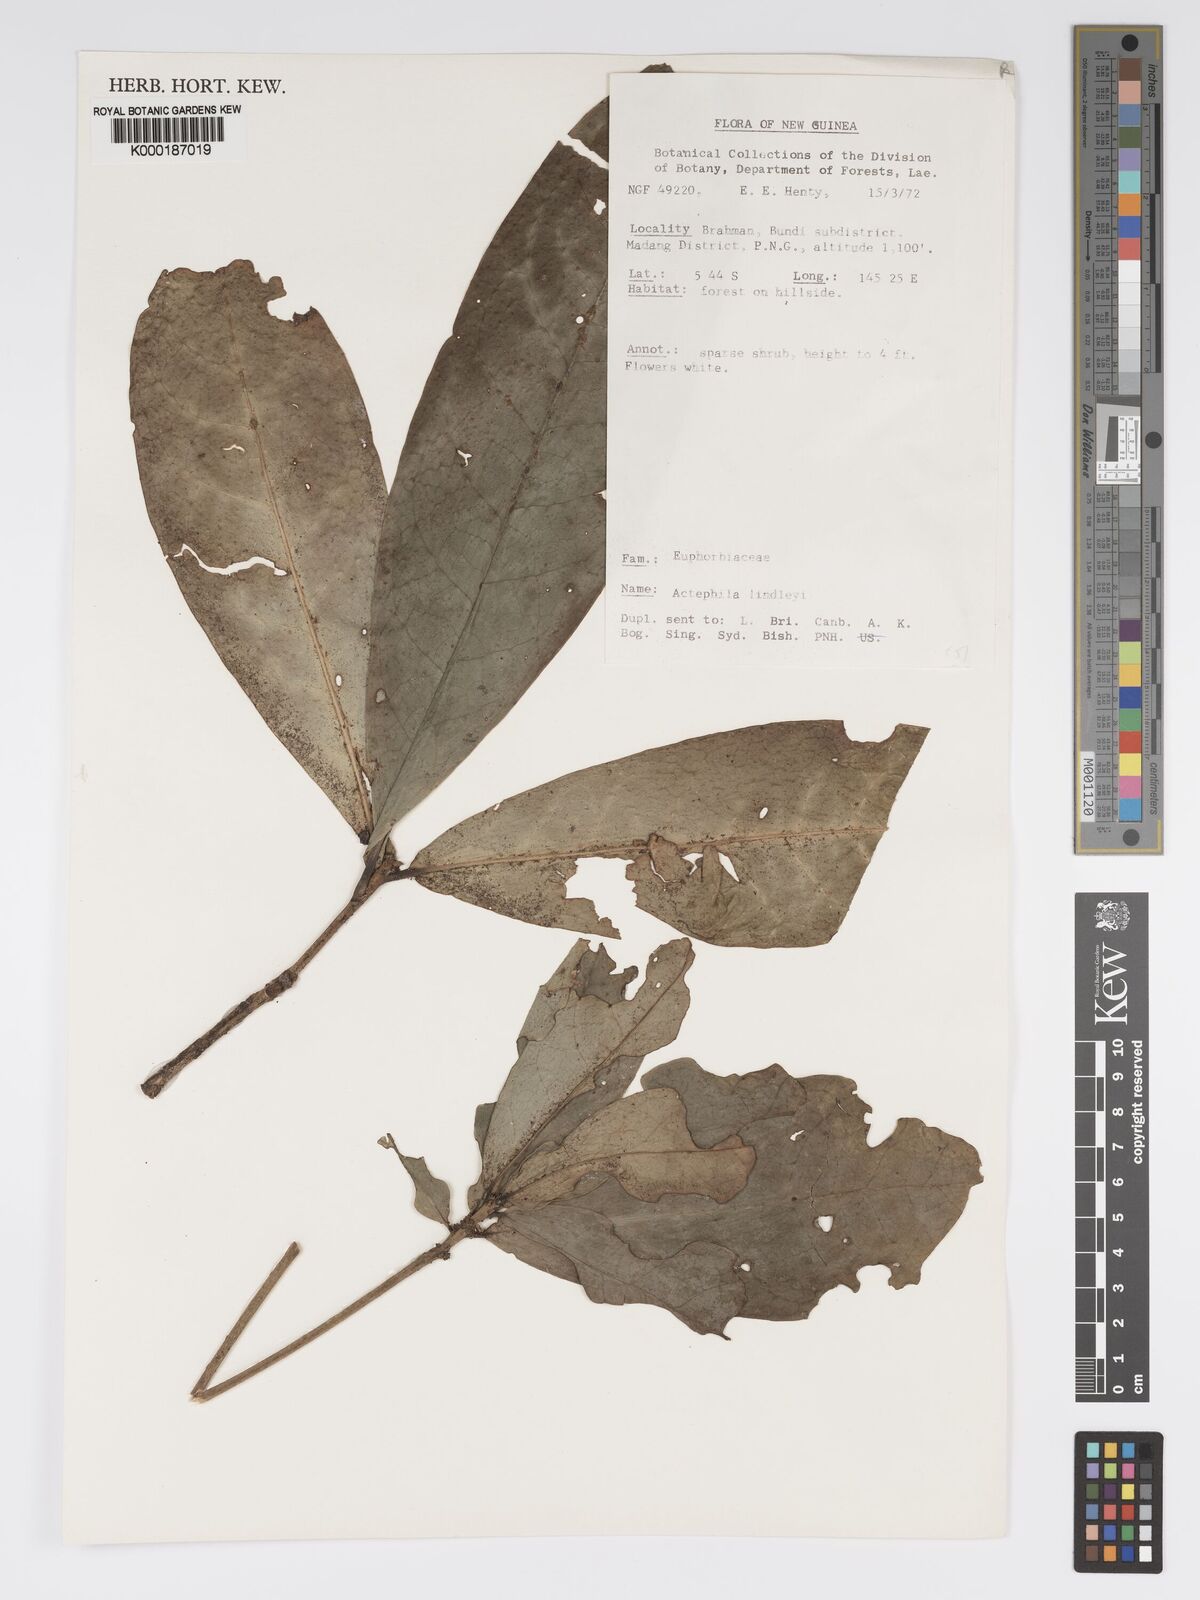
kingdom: Plantae
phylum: Tracheophyta
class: Magnoliopsida
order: Malpighiales
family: Phyllanthaceae
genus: Actephila
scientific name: Actephila lindleyi
